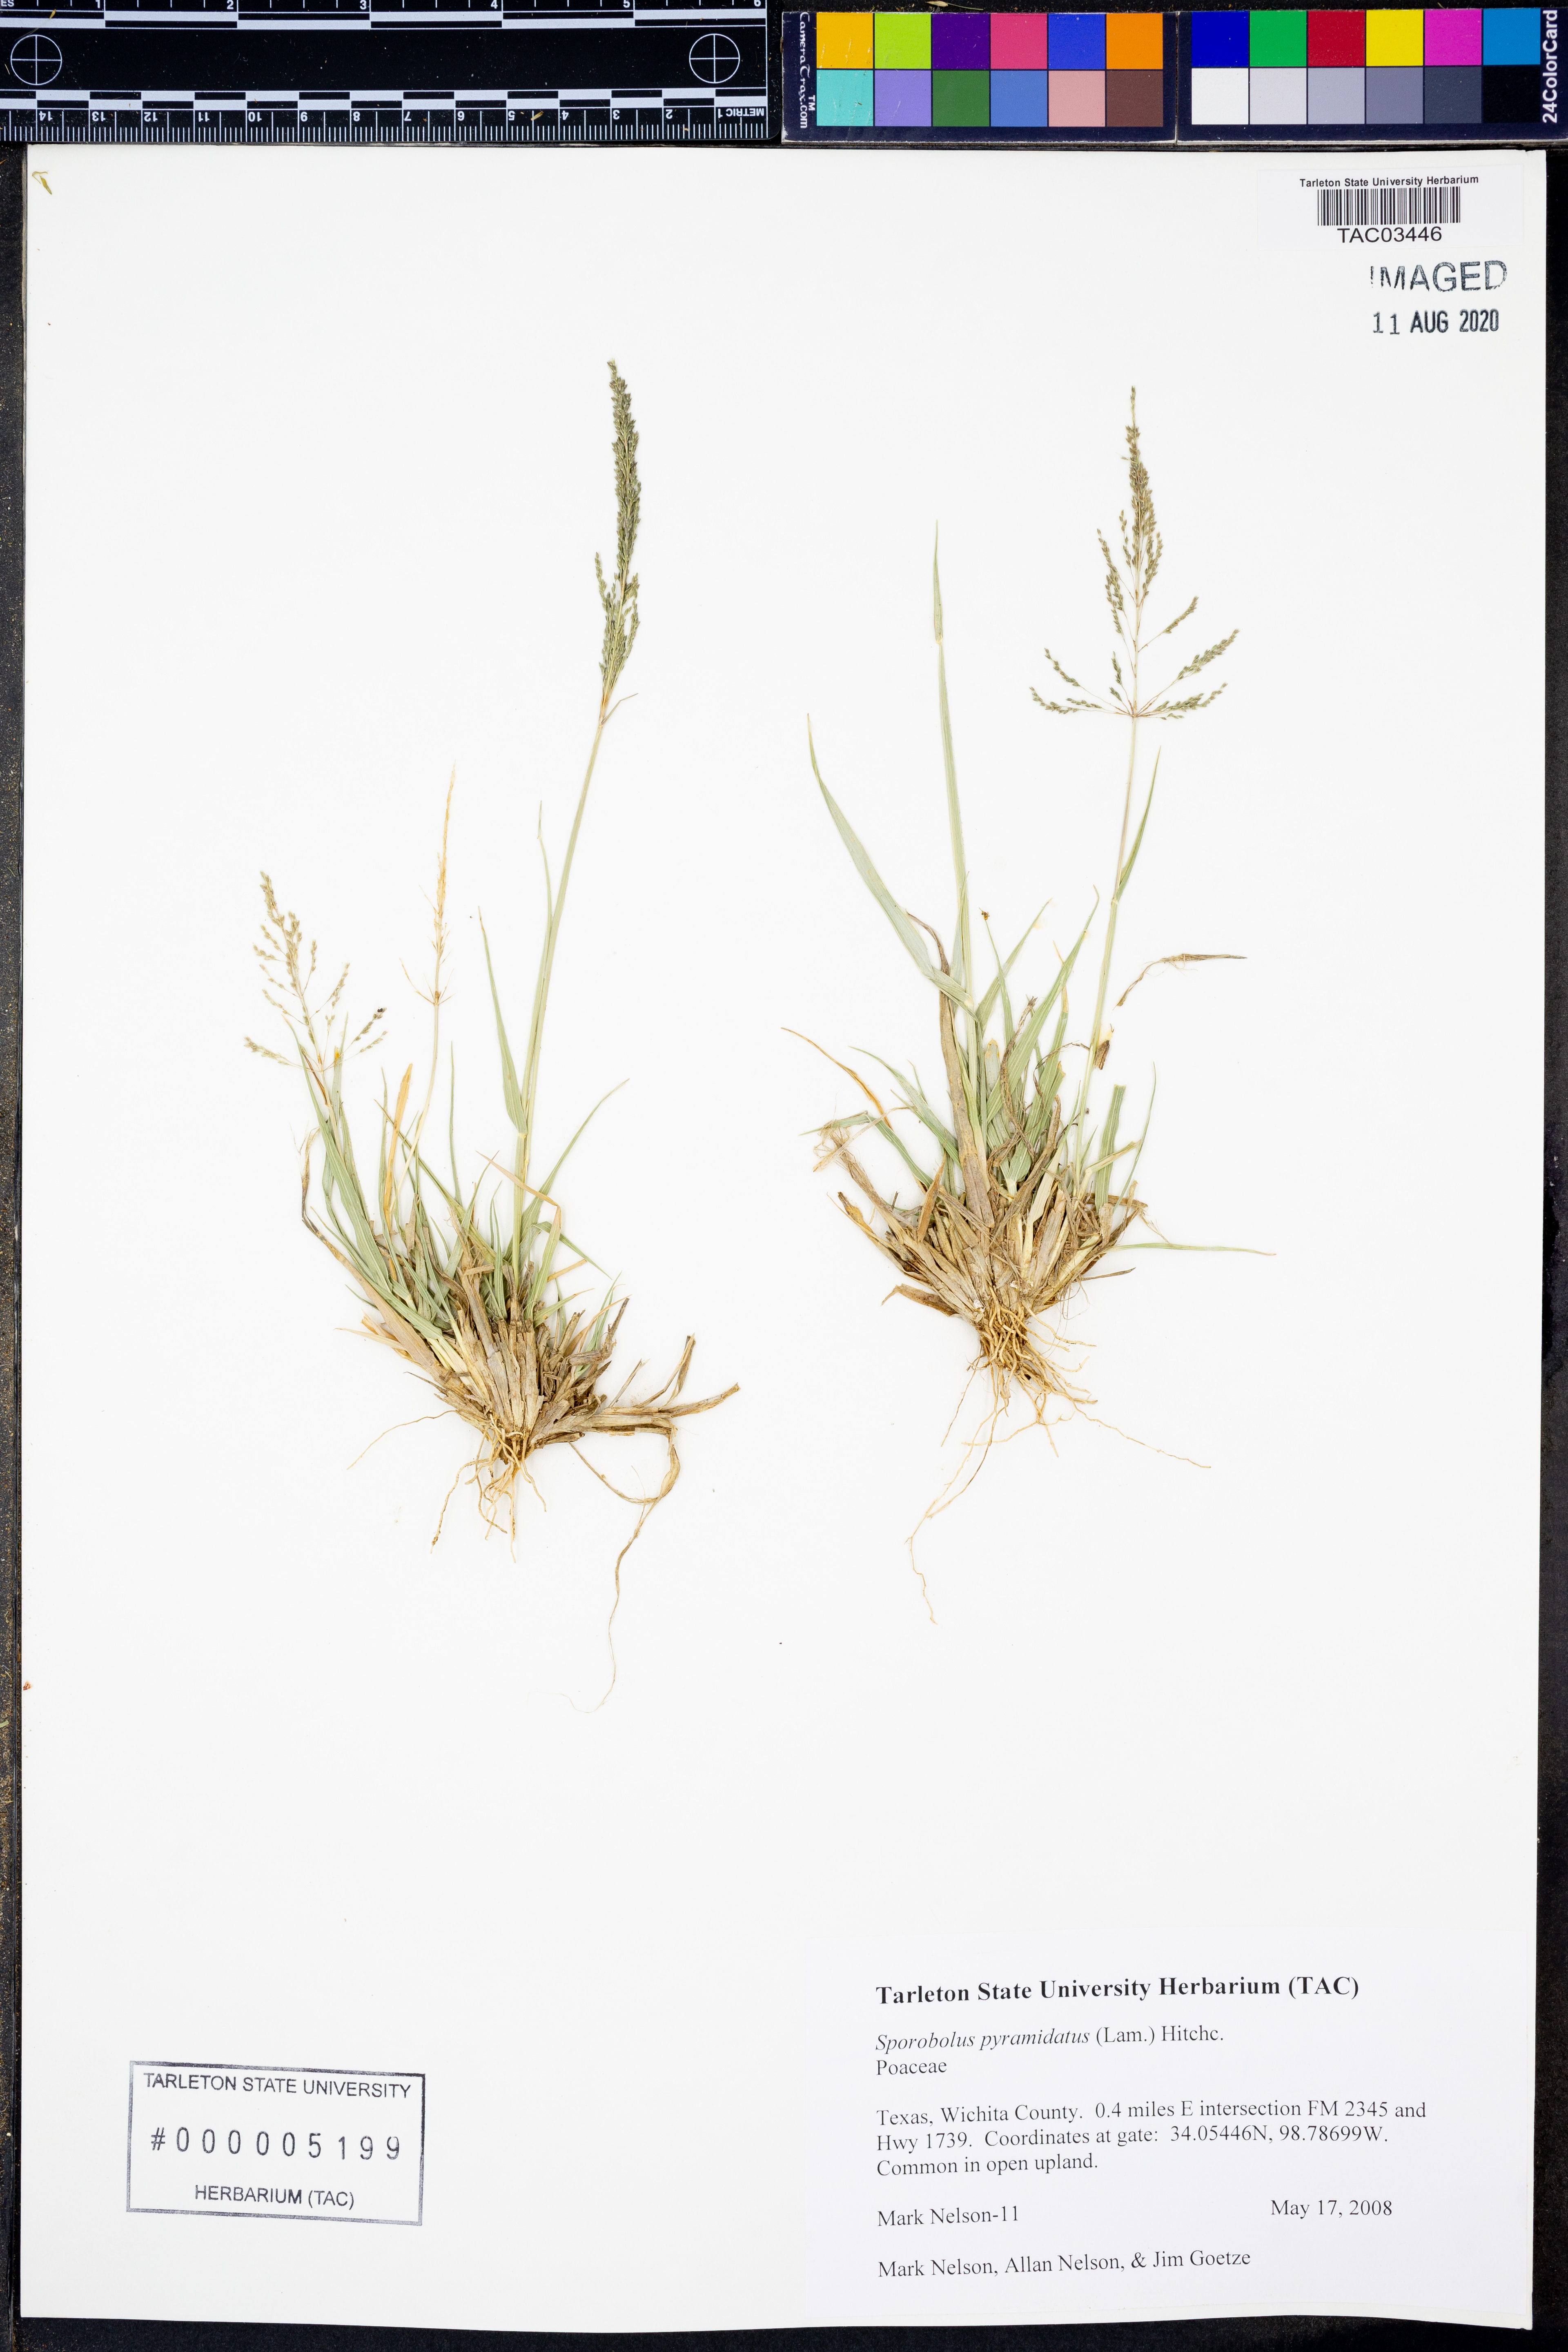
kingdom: Plantae
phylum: Tracheophyta
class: Liliopsida
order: Poales
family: Poaceae
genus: Sporobolus
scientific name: Sporobolus pyramidalis
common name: West indian dropseed
